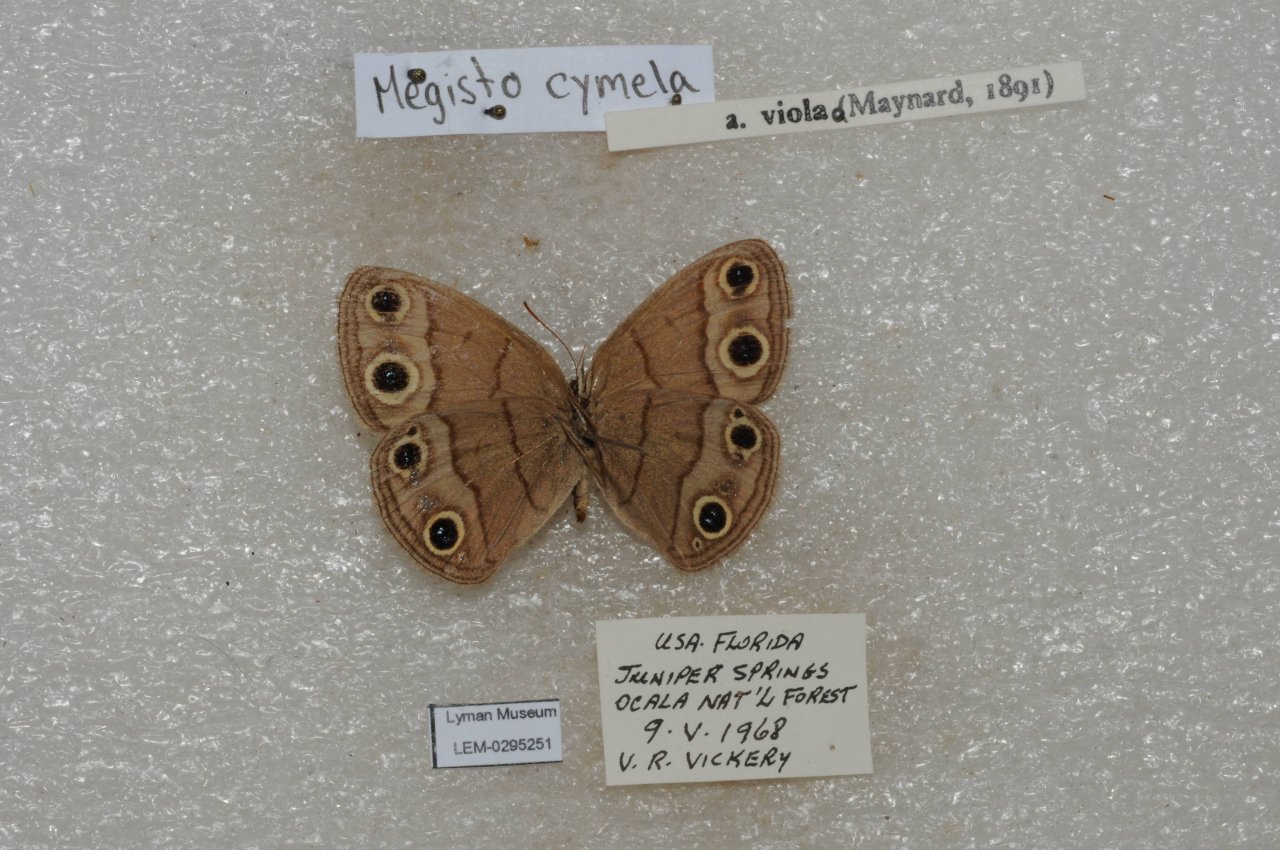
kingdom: Animalia
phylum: Arthropoda
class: Insecta
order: Lepidoptera
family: Nymphalidae
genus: Euptychia
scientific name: Euptychia cymela
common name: Little Wood Satyr
